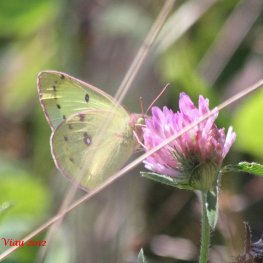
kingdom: Animalia
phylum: Arthropoda
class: Insecta
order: Lepidoptera
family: Pieridae
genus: Colias
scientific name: Colias philodice
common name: Clouded Sulphur
